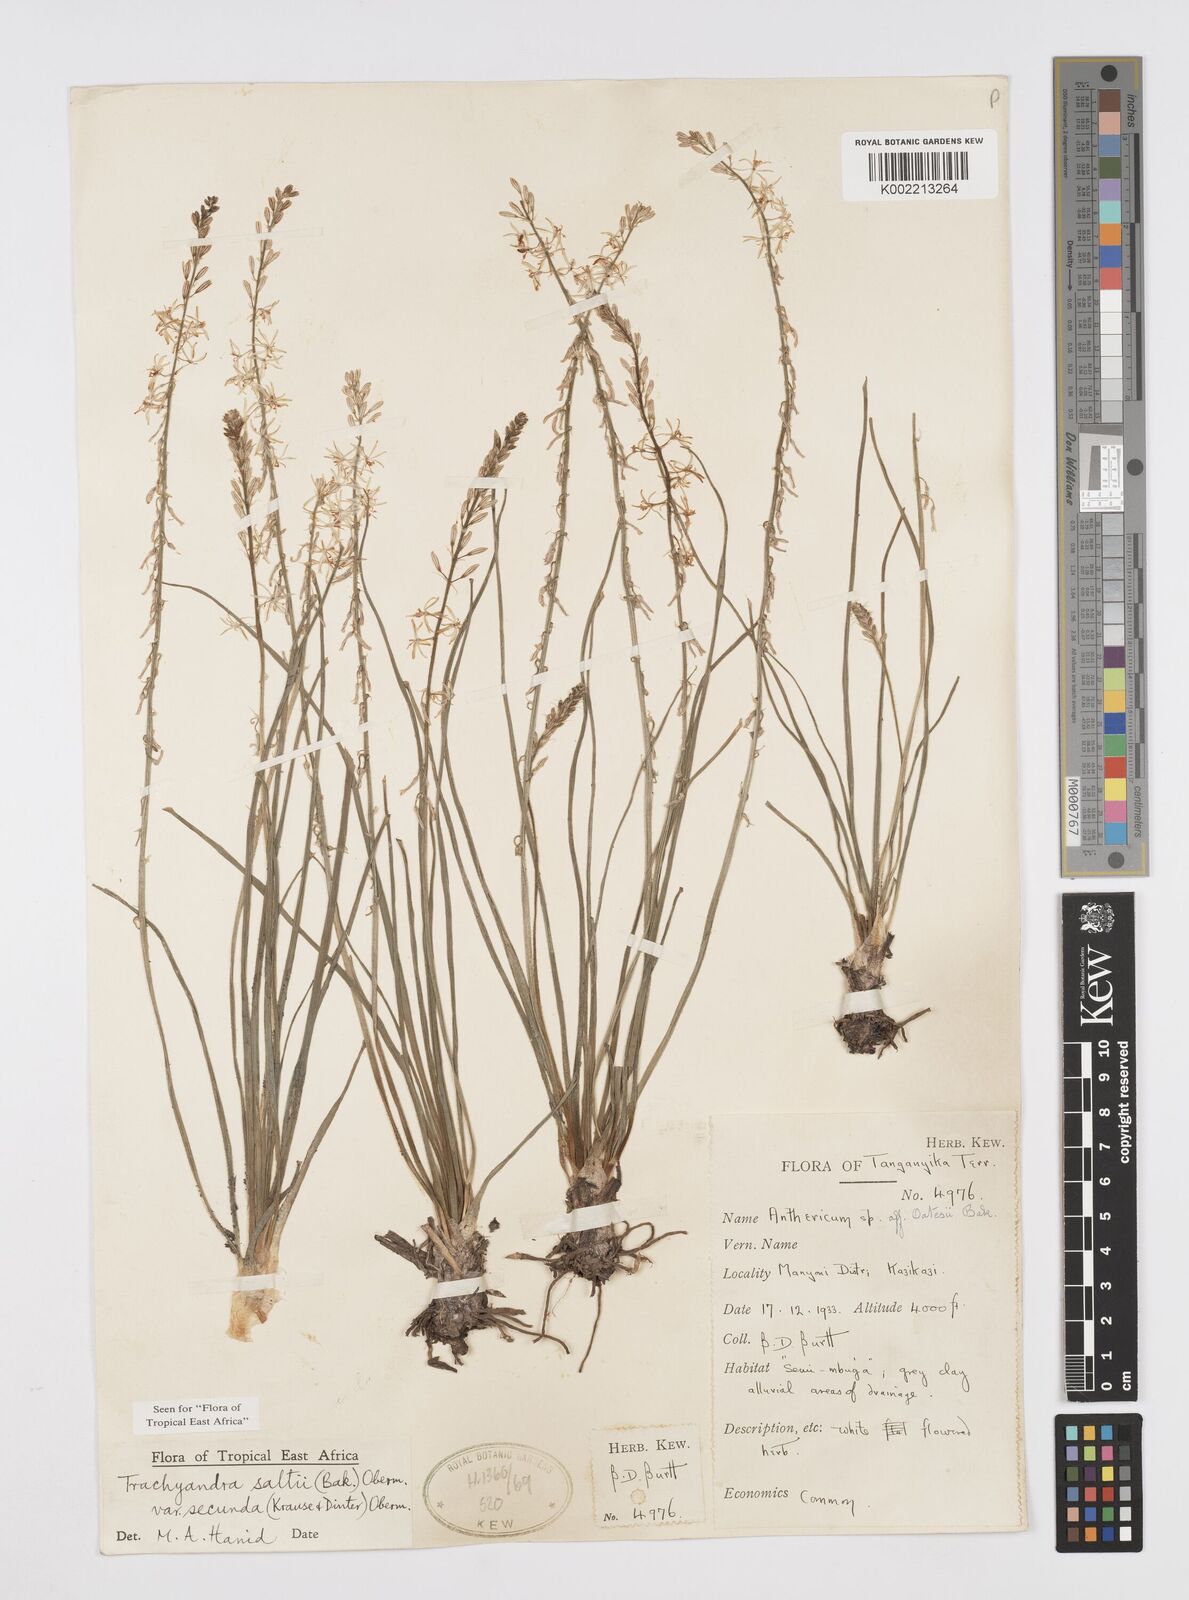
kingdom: Plantae
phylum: Tracheophyta
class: Liliopsida
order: Asparagales
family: Asphodelaceae
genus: Trachyandra
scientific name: Trachyandra saltii
